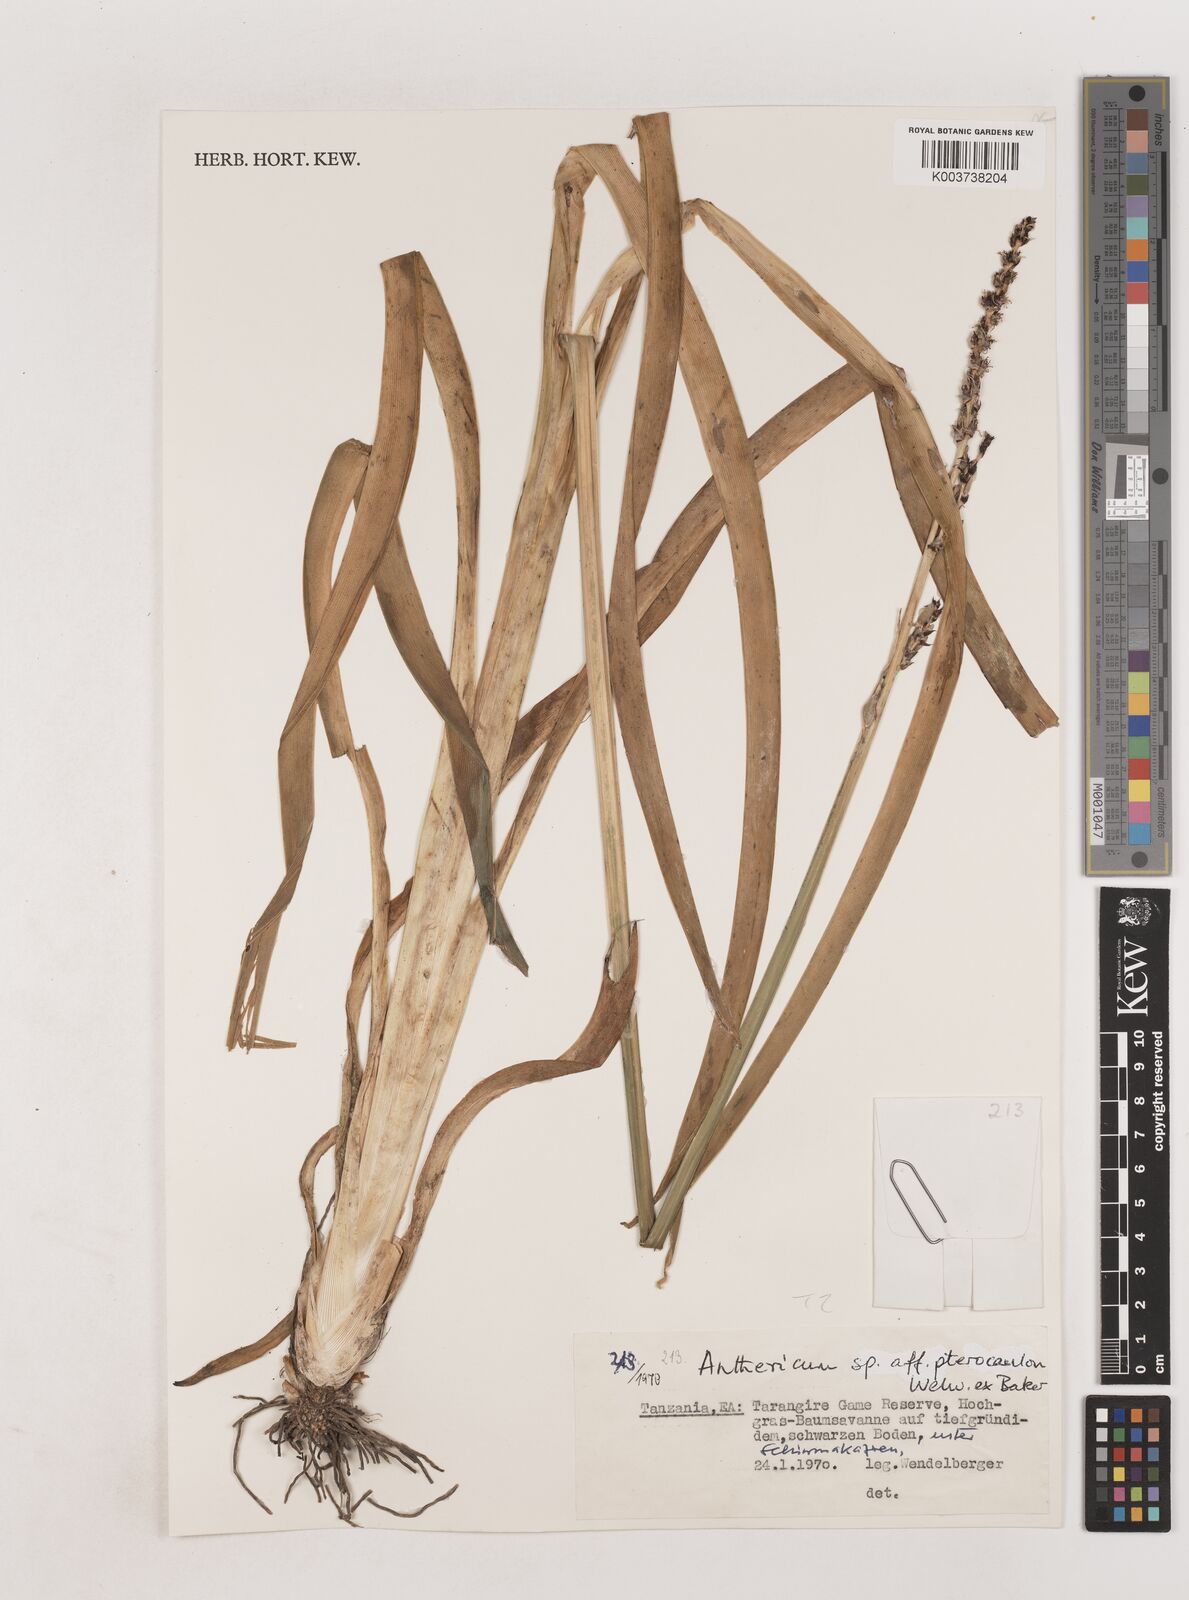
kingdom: Plantae
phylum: Tracheophyta
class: Liliopsida
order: Asparagales
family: Asparagaceae
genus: Chlorophytum
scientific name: Chlorophytum cameronii
